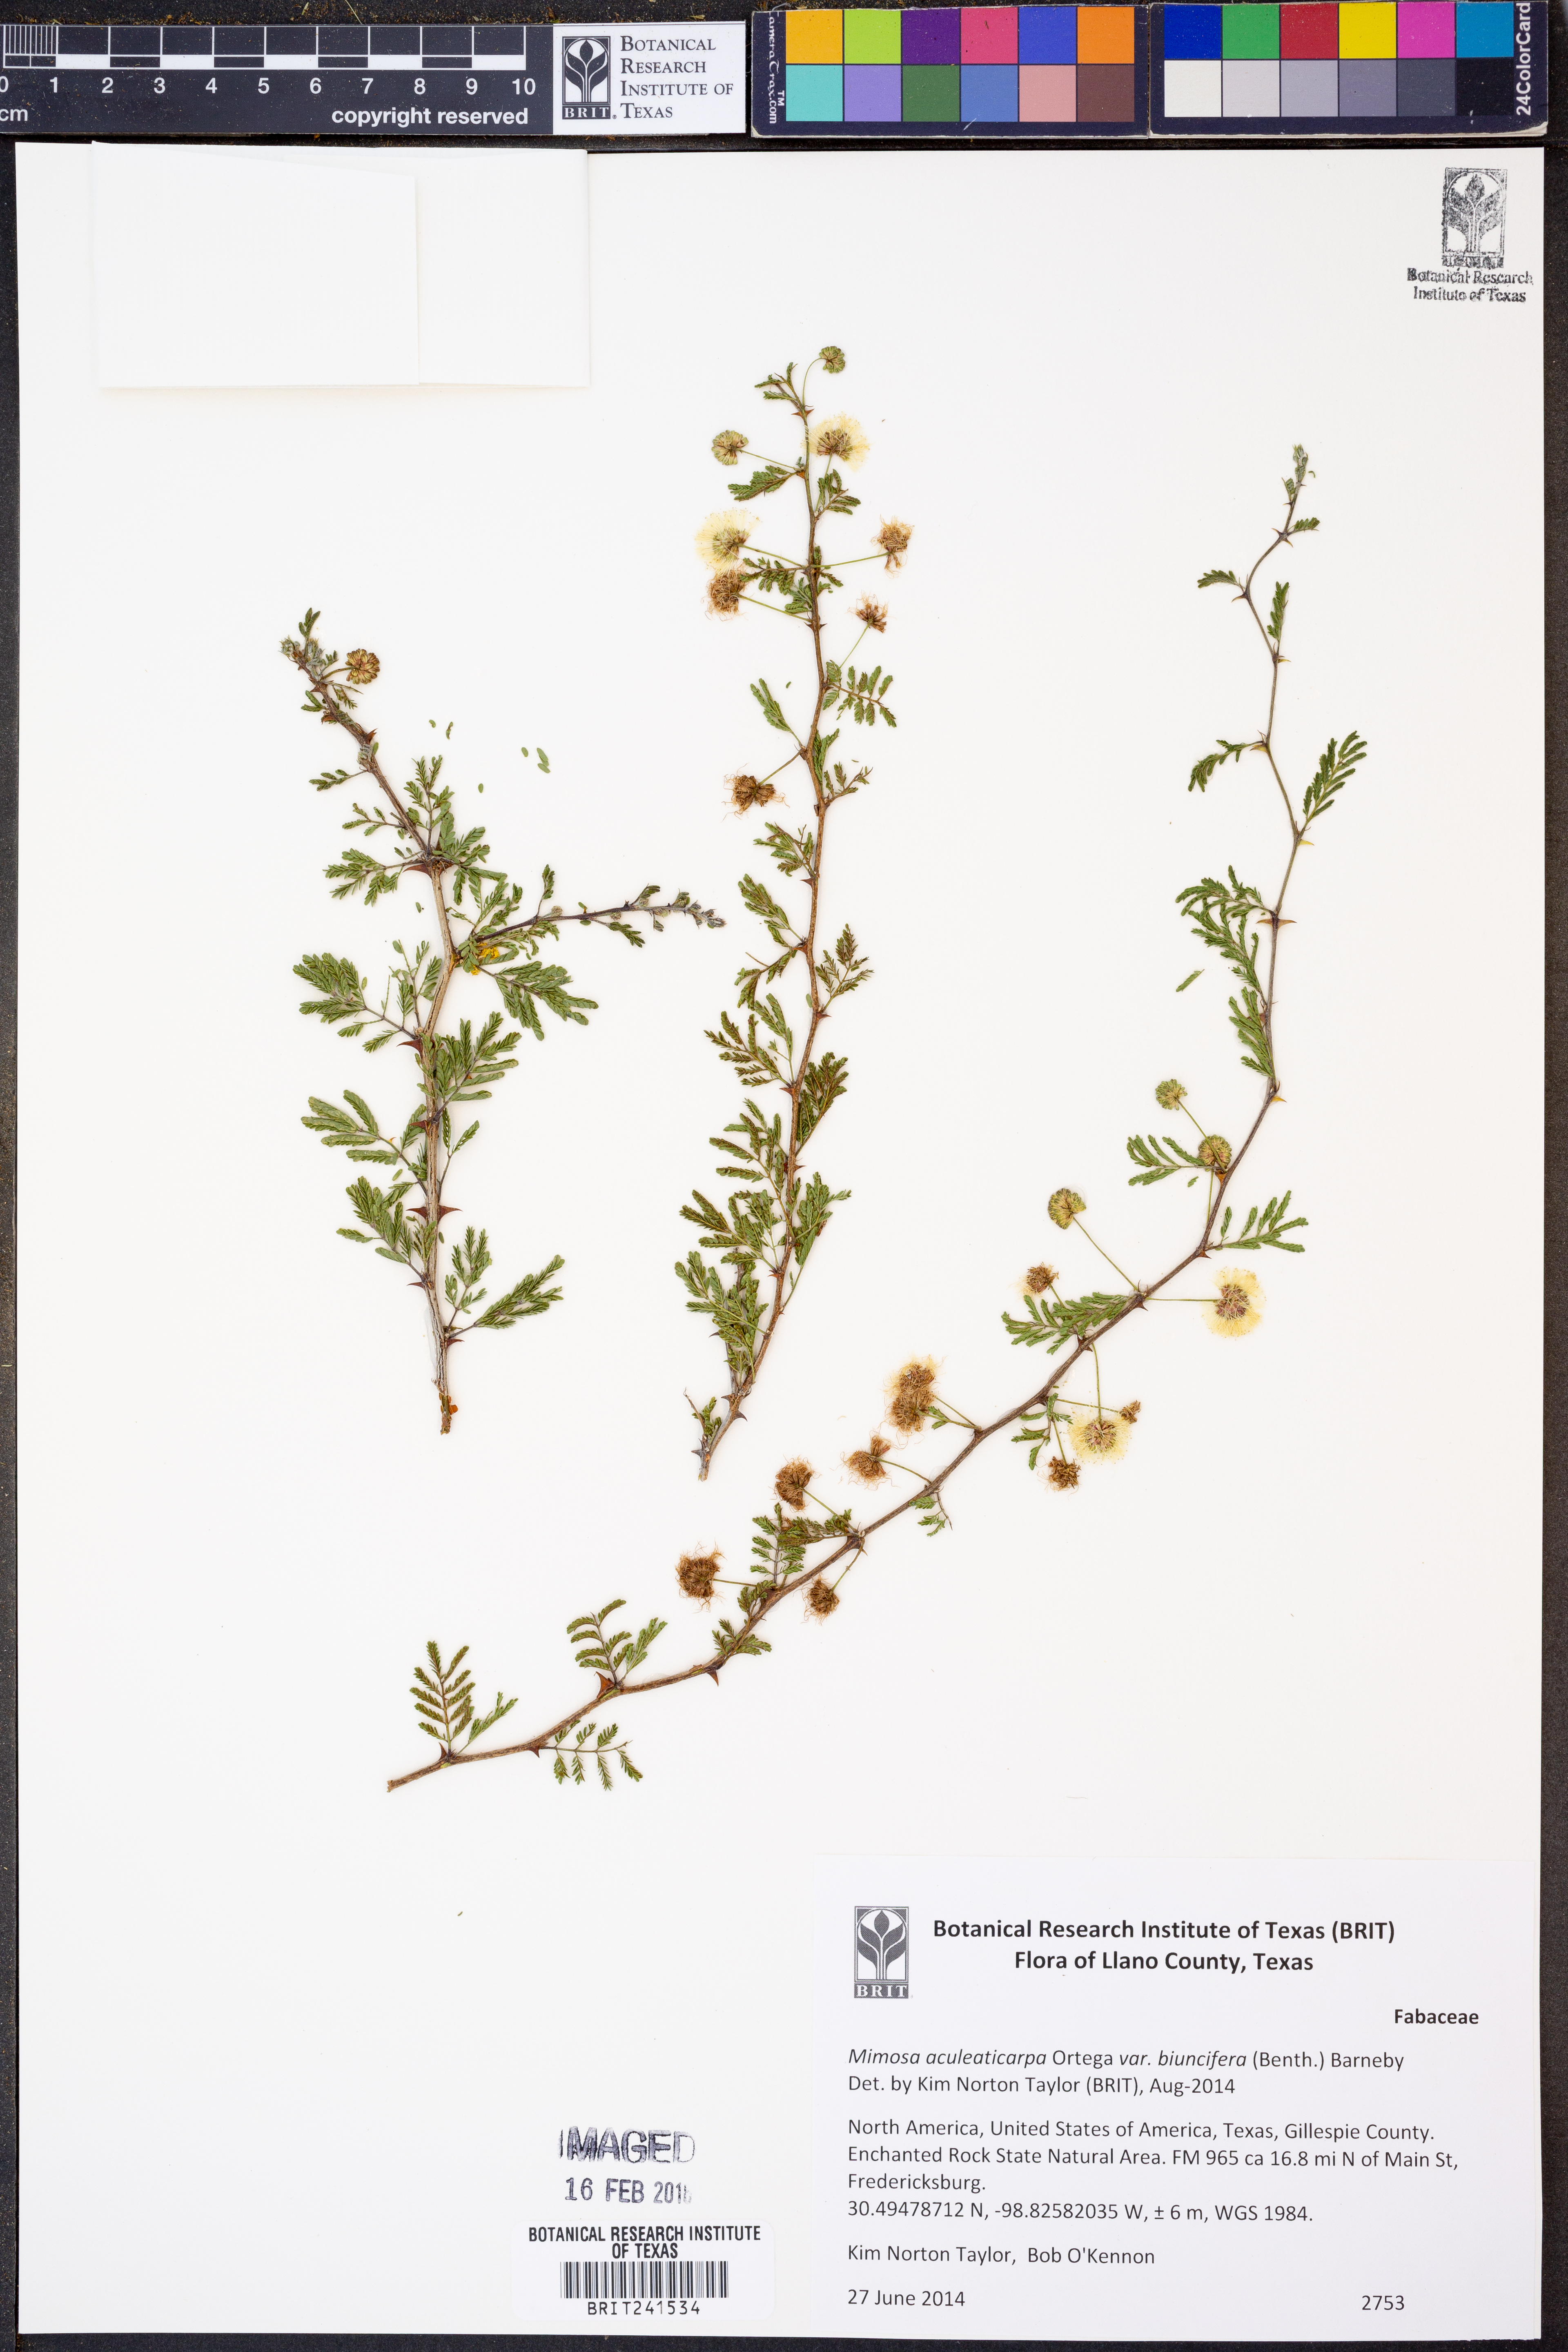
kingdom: Plantae
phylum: Tracheophyta
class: Magnoliopsida
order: Fabales
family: Fabaceae
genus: Mimosa
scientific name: Mimosa biuncifera
